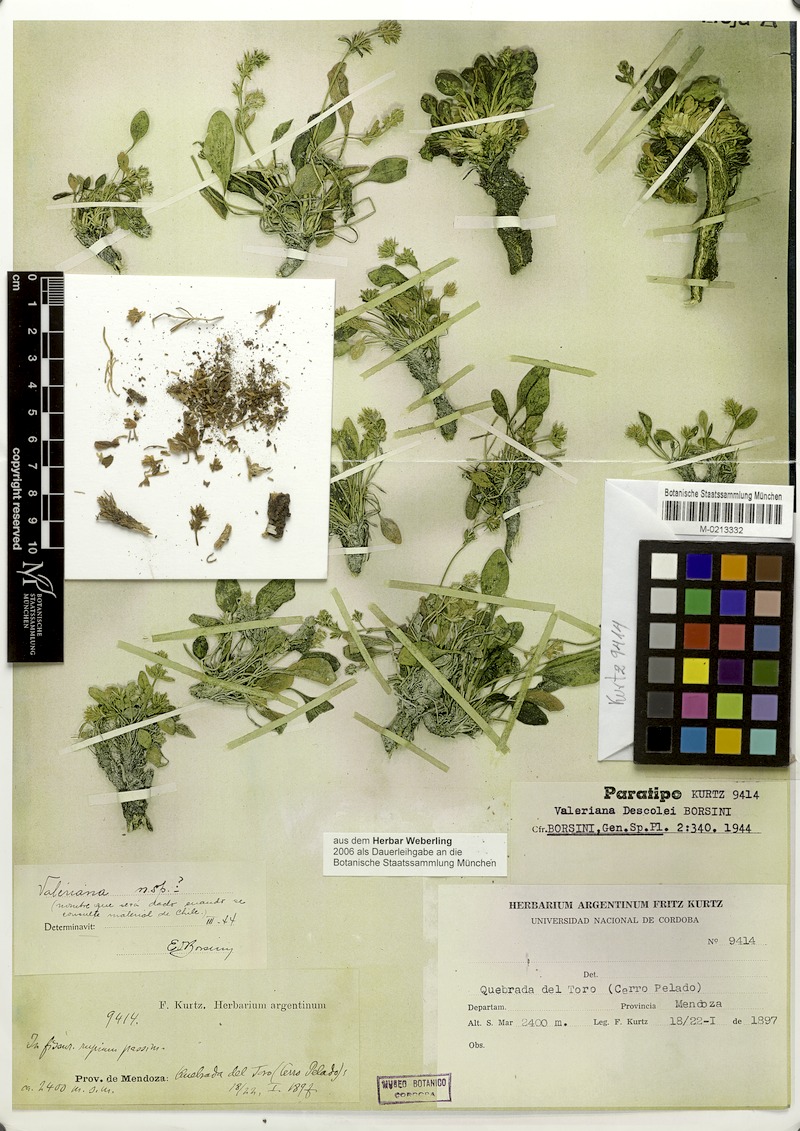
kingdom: Plantae
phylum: Tracheophyta
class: Magnoliopsida
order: Dipsacales
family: Caprifoliaceae
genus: Valeriana
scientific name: Valeriana descolei
